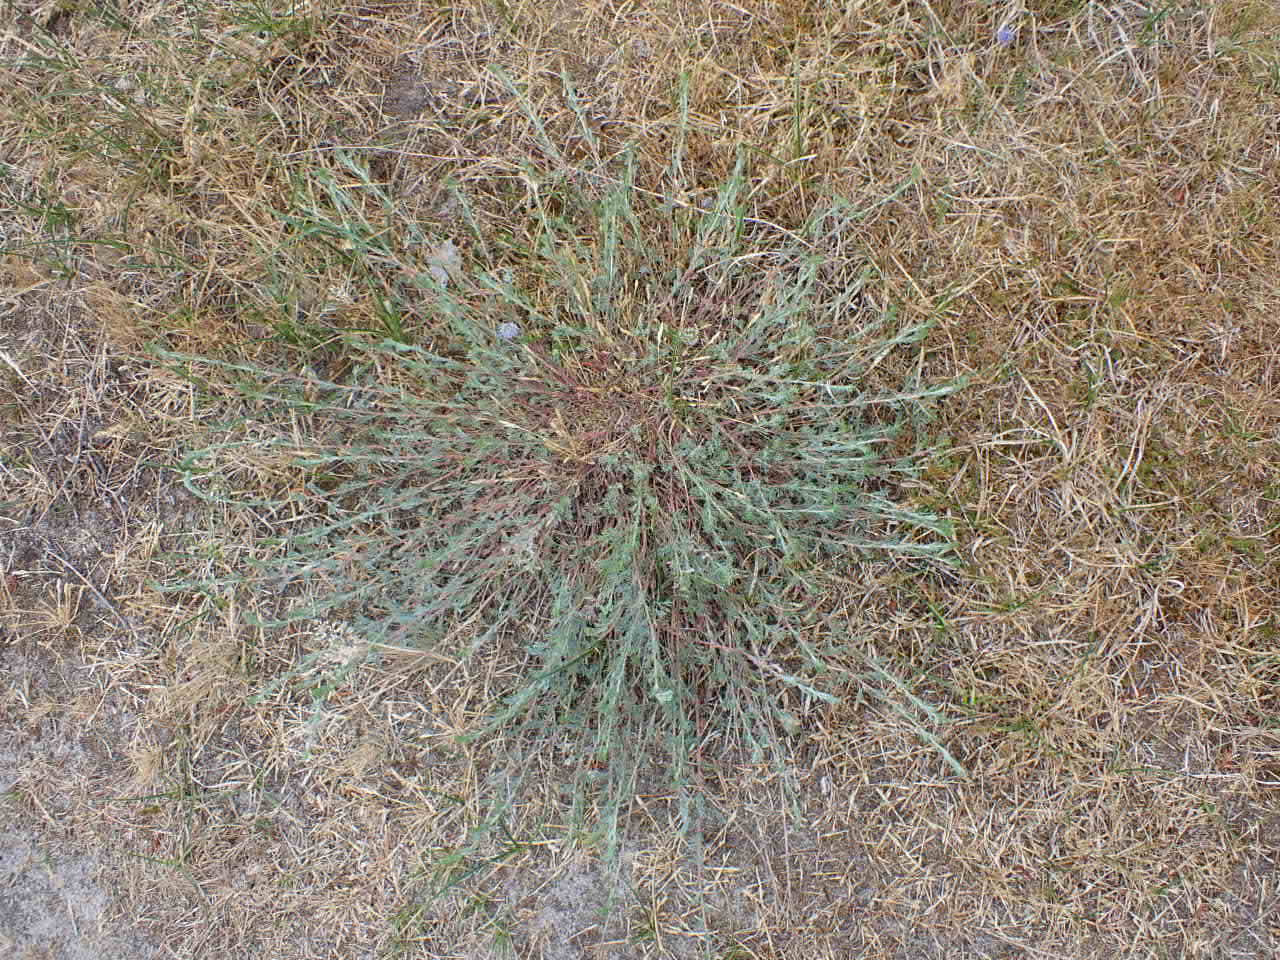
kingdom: Plantae
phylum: Tracheophyta
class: Magnoliopsida
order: Asterales
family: Asteraceae
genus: Artemisia
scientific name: Artemisia campestris
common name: Mark-bynke
